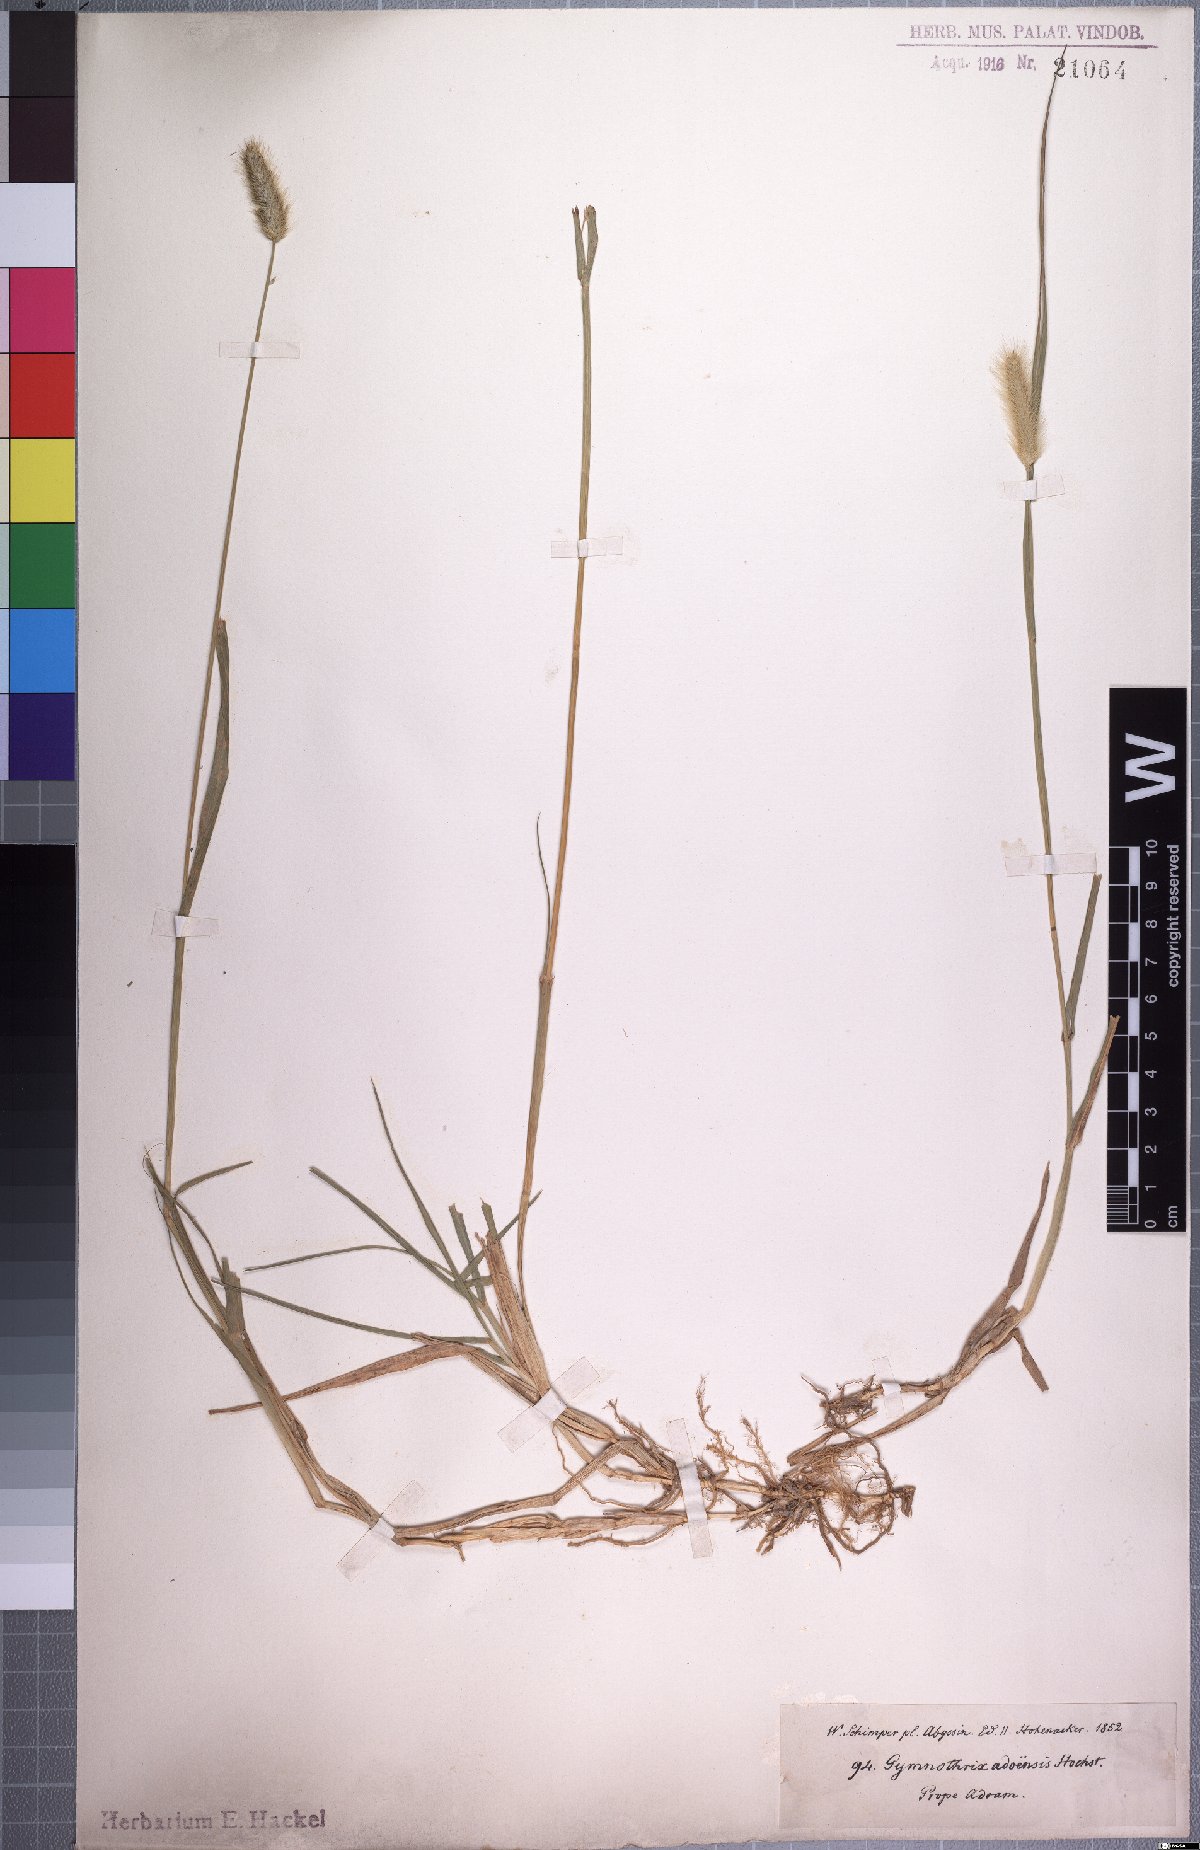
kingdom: Plantae
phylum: Tracheophyta
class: Liliopsida
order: Poales
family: Poaceae
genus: Cenchrus
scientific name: Cenchrus geniculatus
